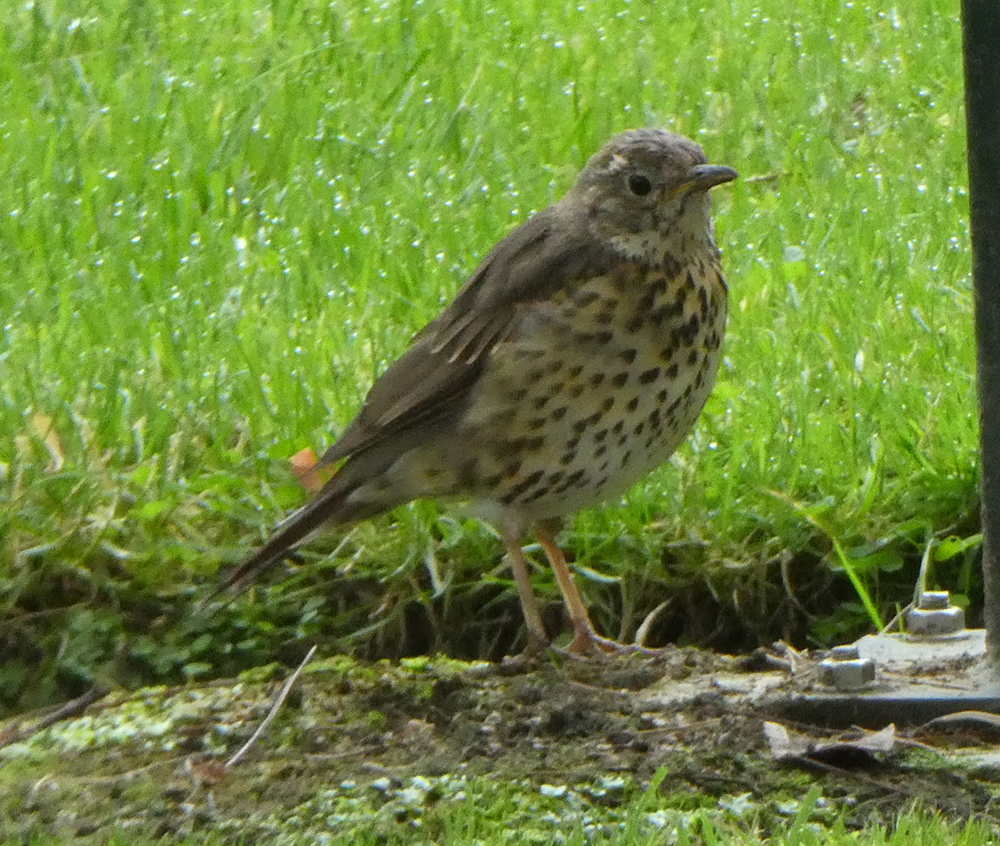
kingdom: Animalia
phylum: Chordata
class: Aves
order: Passeriformes
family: Turdidae
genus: Turdus
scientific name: Turdus philomelos
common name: Song thrush
